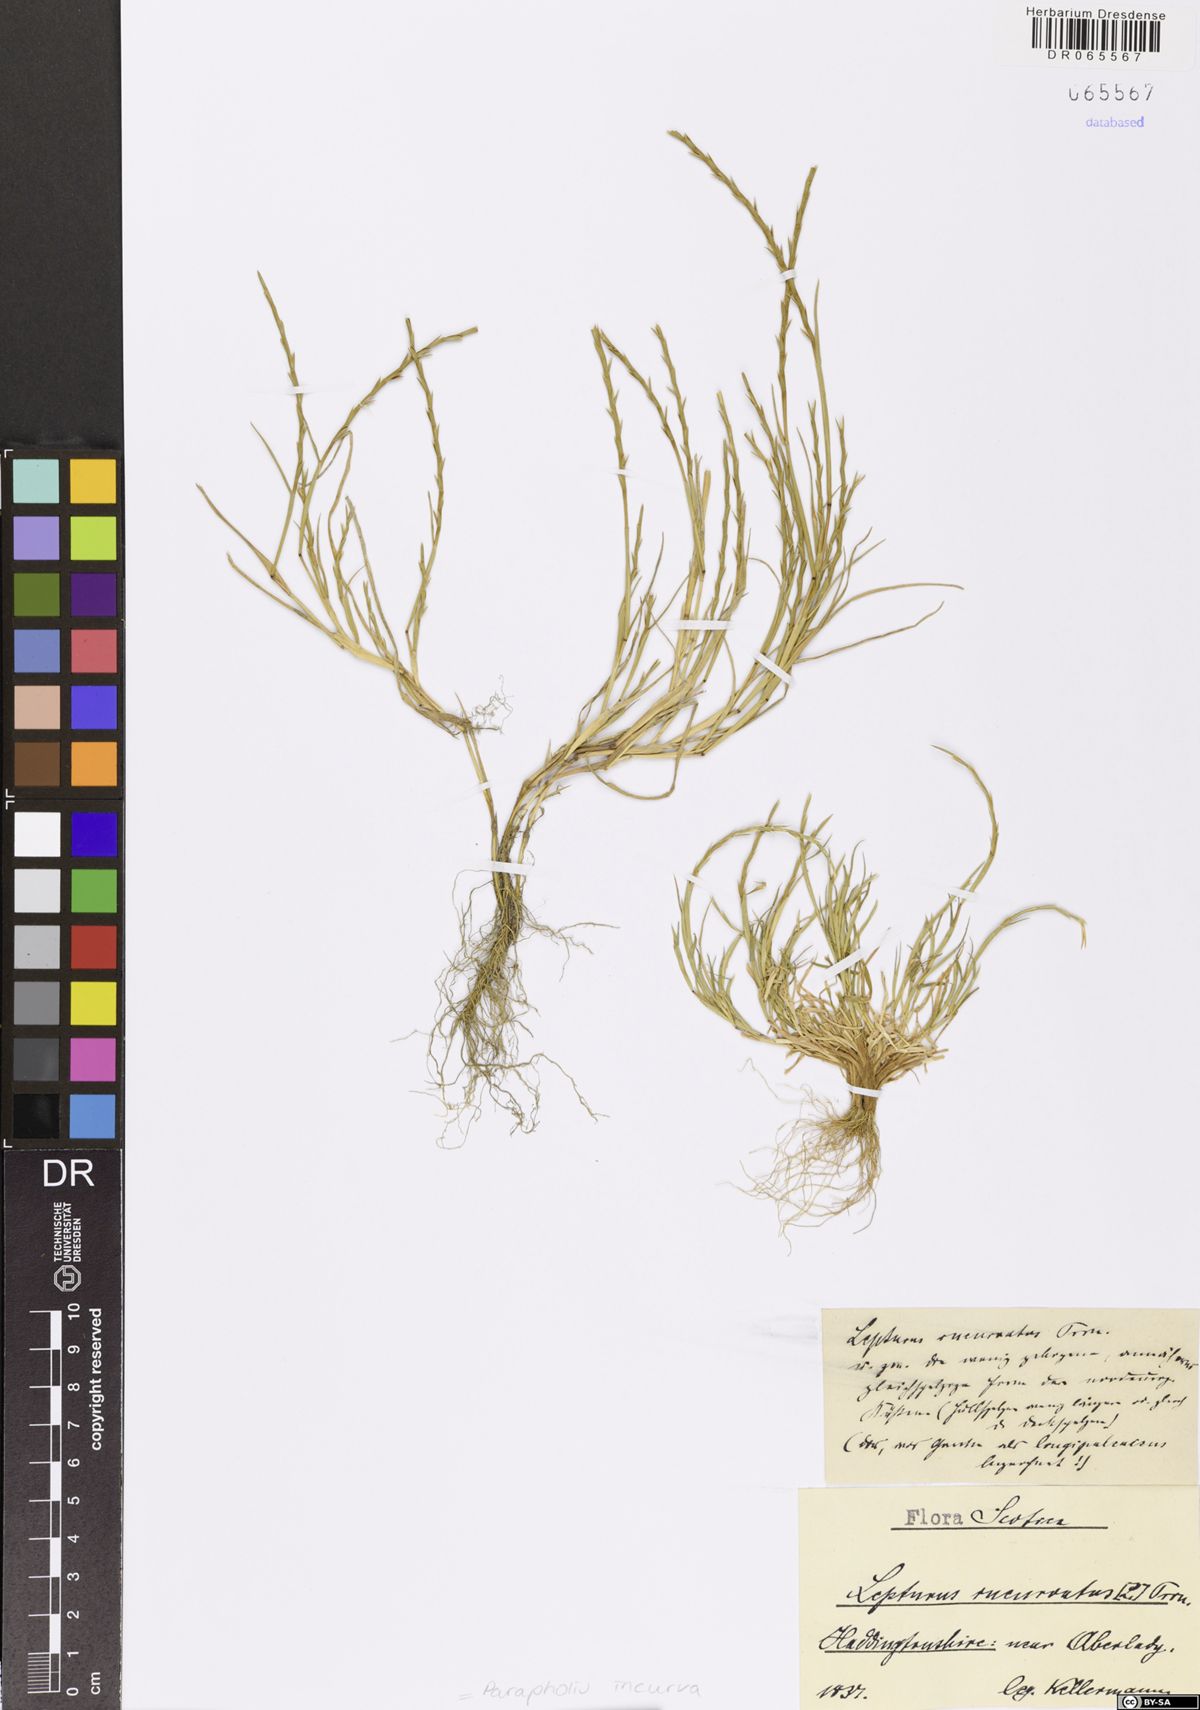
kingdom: Plantae
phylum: Tracheophyta
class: Liliopsida
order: Poales
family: Poaceae
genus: Parapholis
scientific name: Parapholis incurva
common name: Curved sicklegrass
